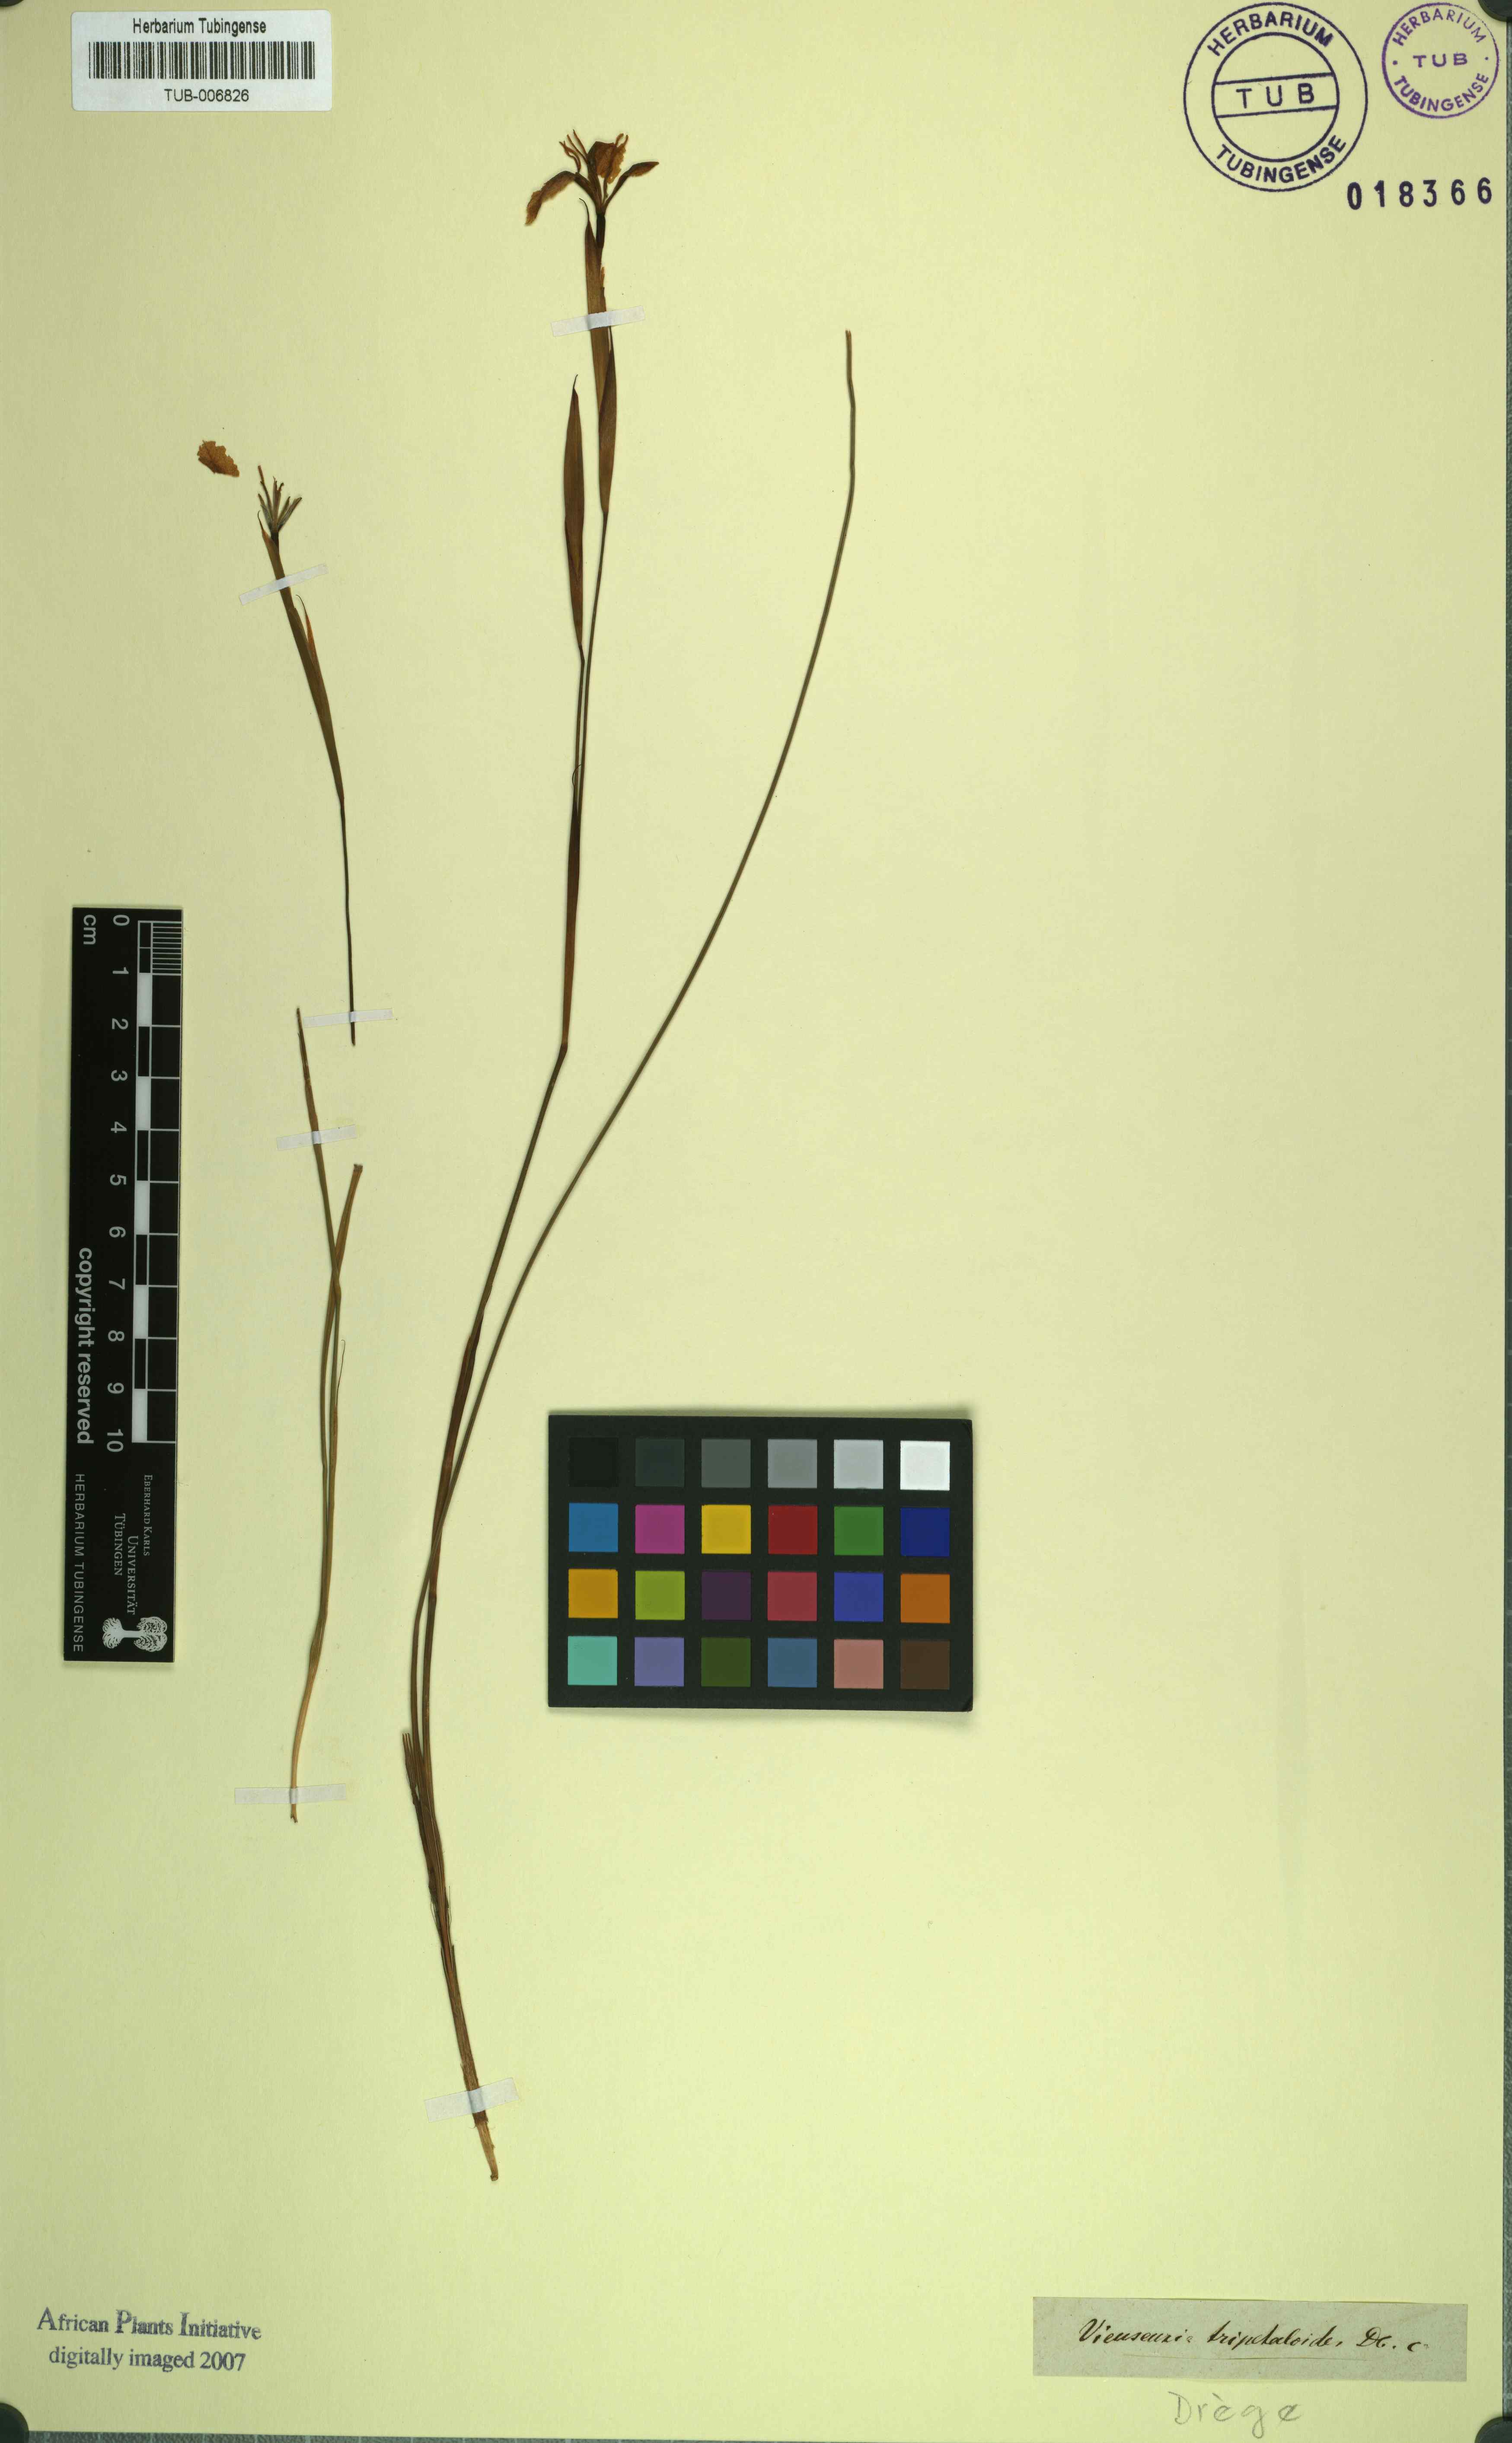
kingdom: Plantae
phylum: Tracheophyta
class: Liliopsida
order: Asparagales
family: Iridaceae
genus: Moraea
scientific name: Moraea tripetala
